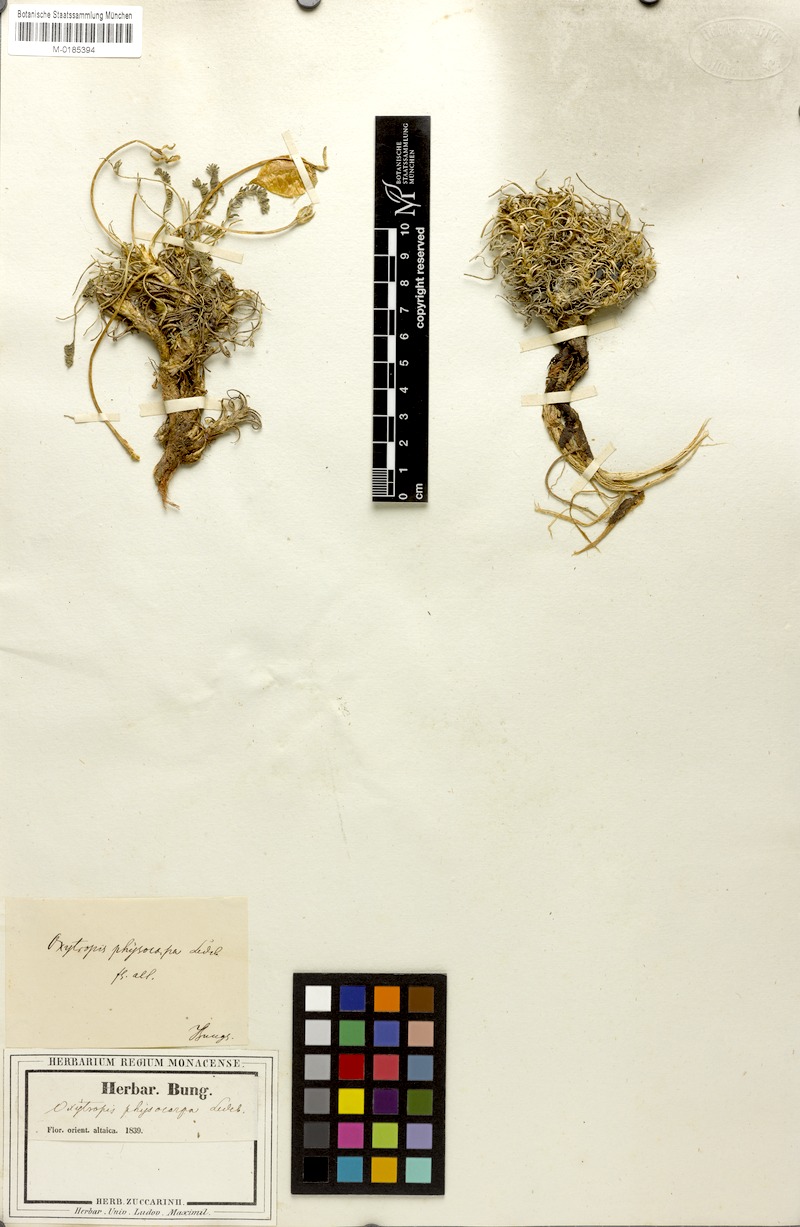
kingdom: Plantae
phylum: Tracheophyta
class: Magnoliopsida
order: Fabales
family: Fabaceae
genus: Oxytropis
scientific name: Oxytropis physocarpa
